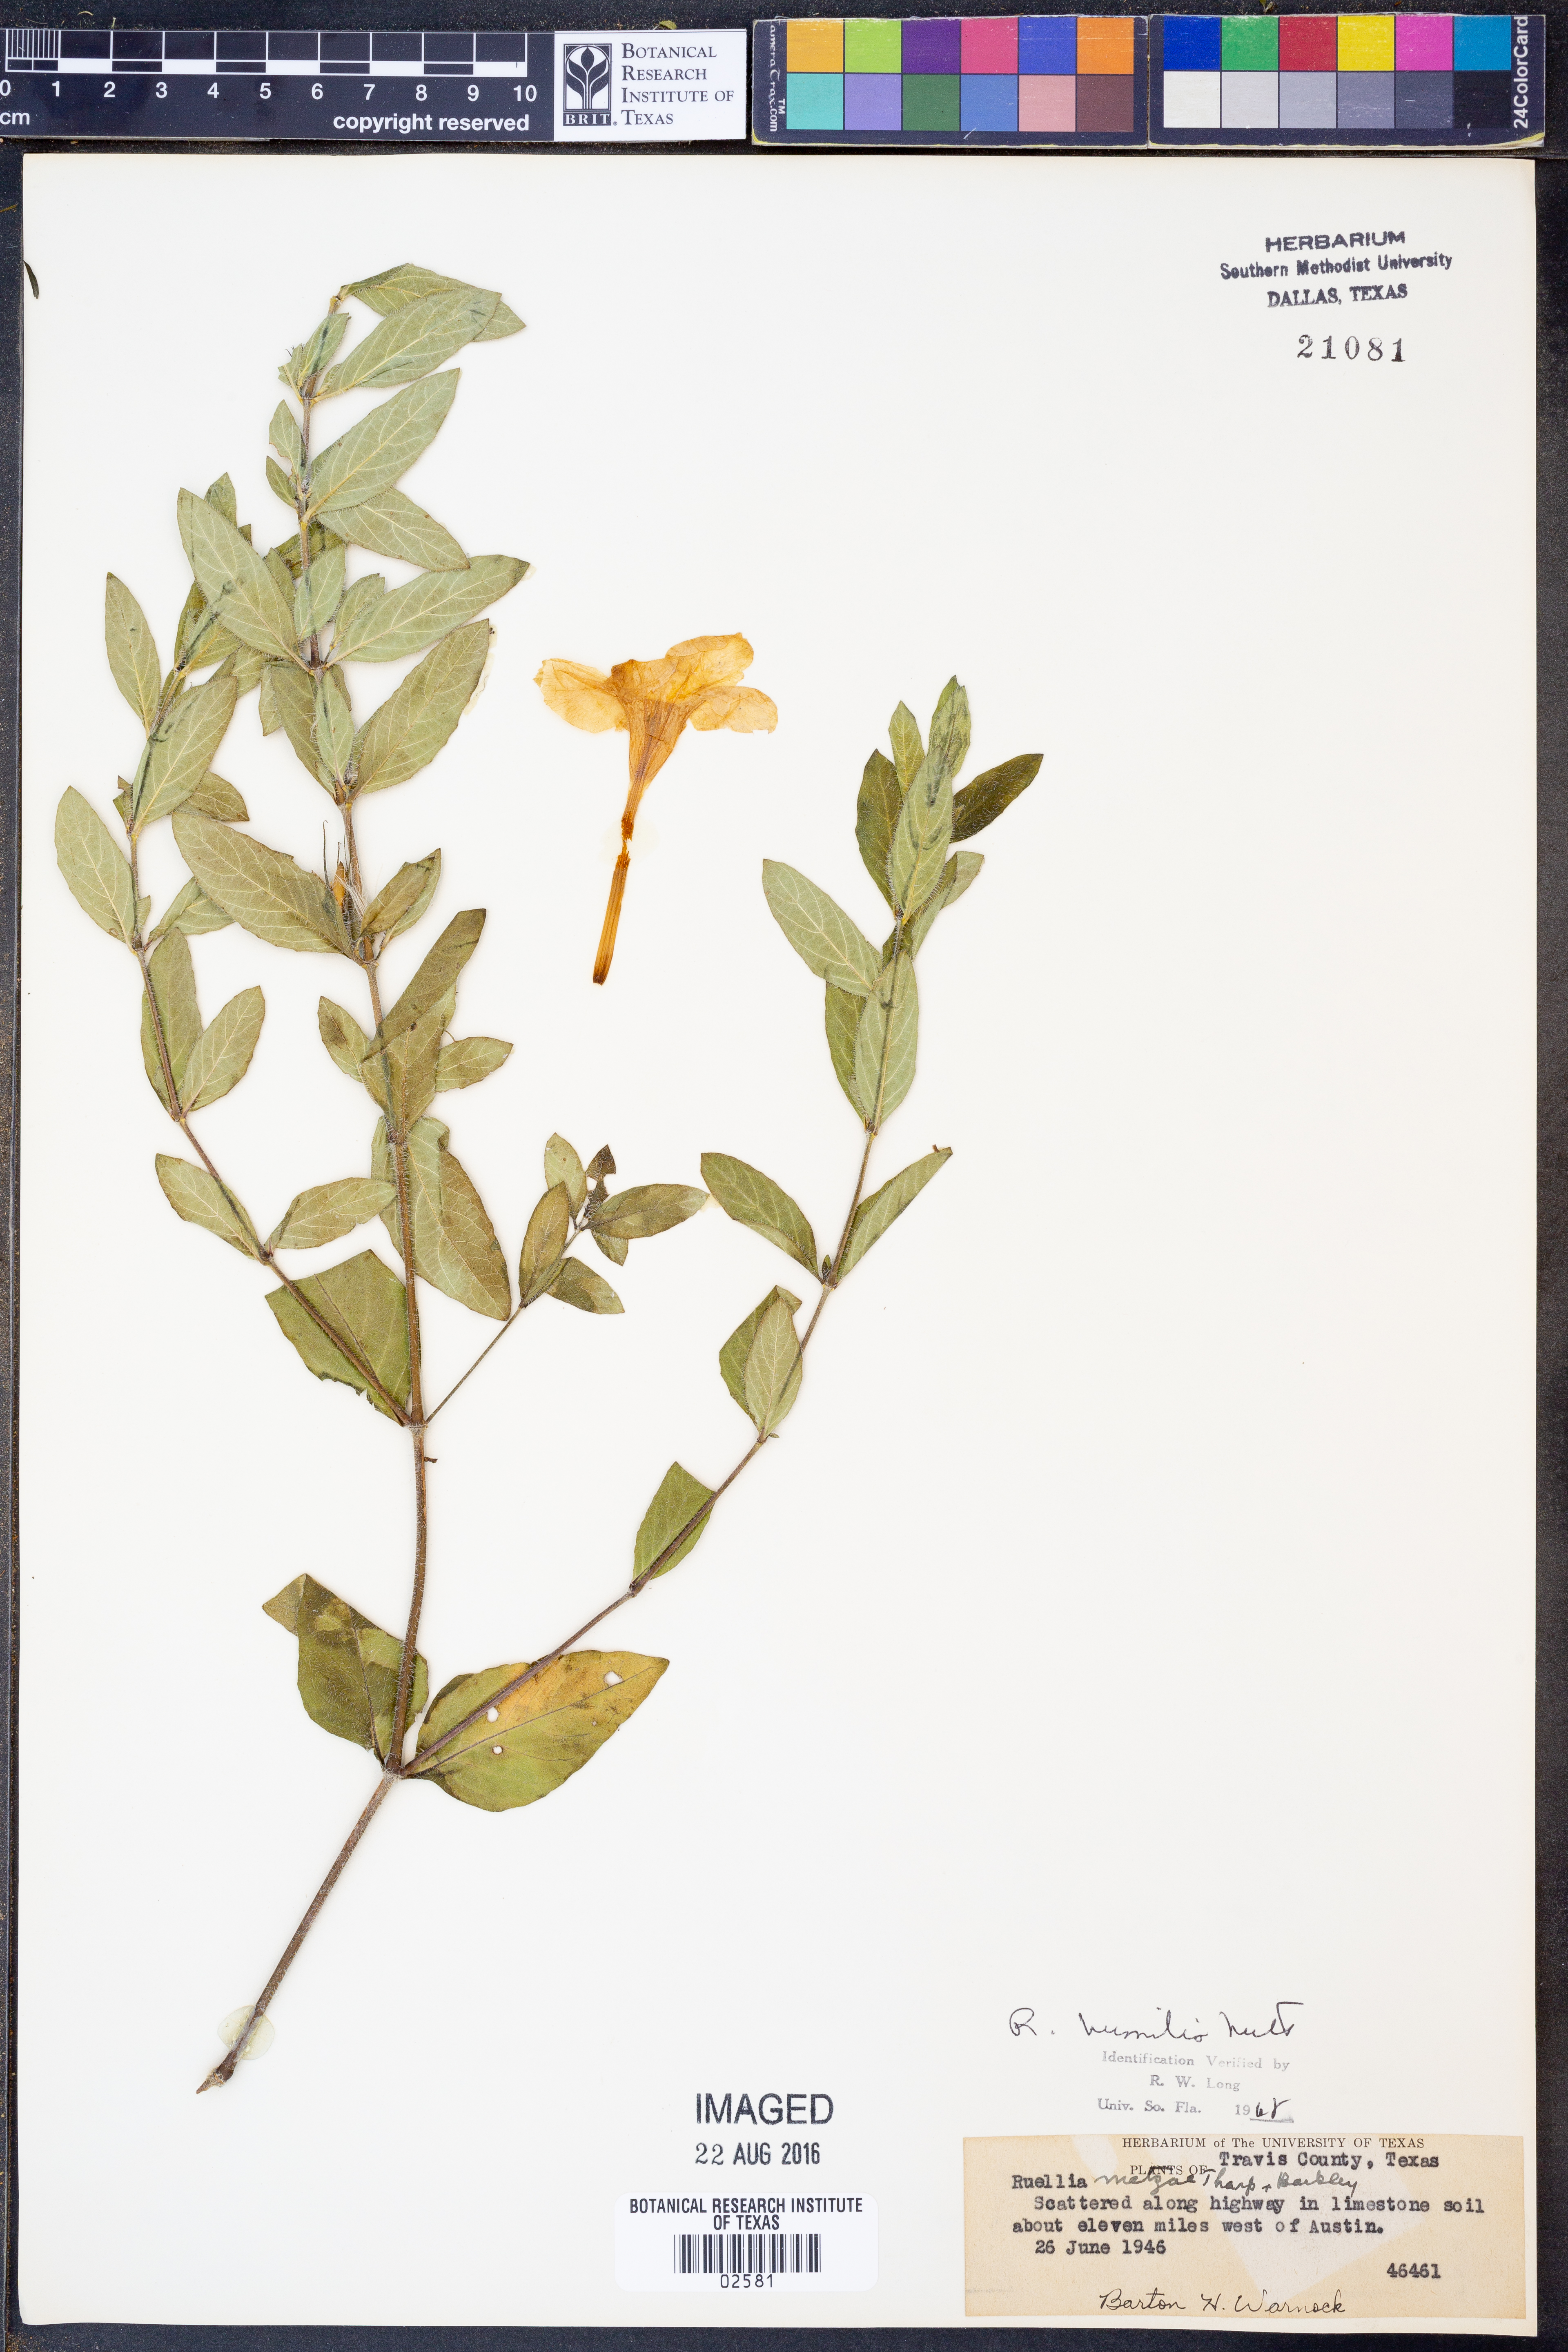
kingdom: Plantae
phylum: Tracheophyta
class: Magnoliopsida
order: Lamiales
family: Acanthaceae
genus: Ruellia
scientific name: Ruellia humilis
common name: Fringe-leaf ruellia
